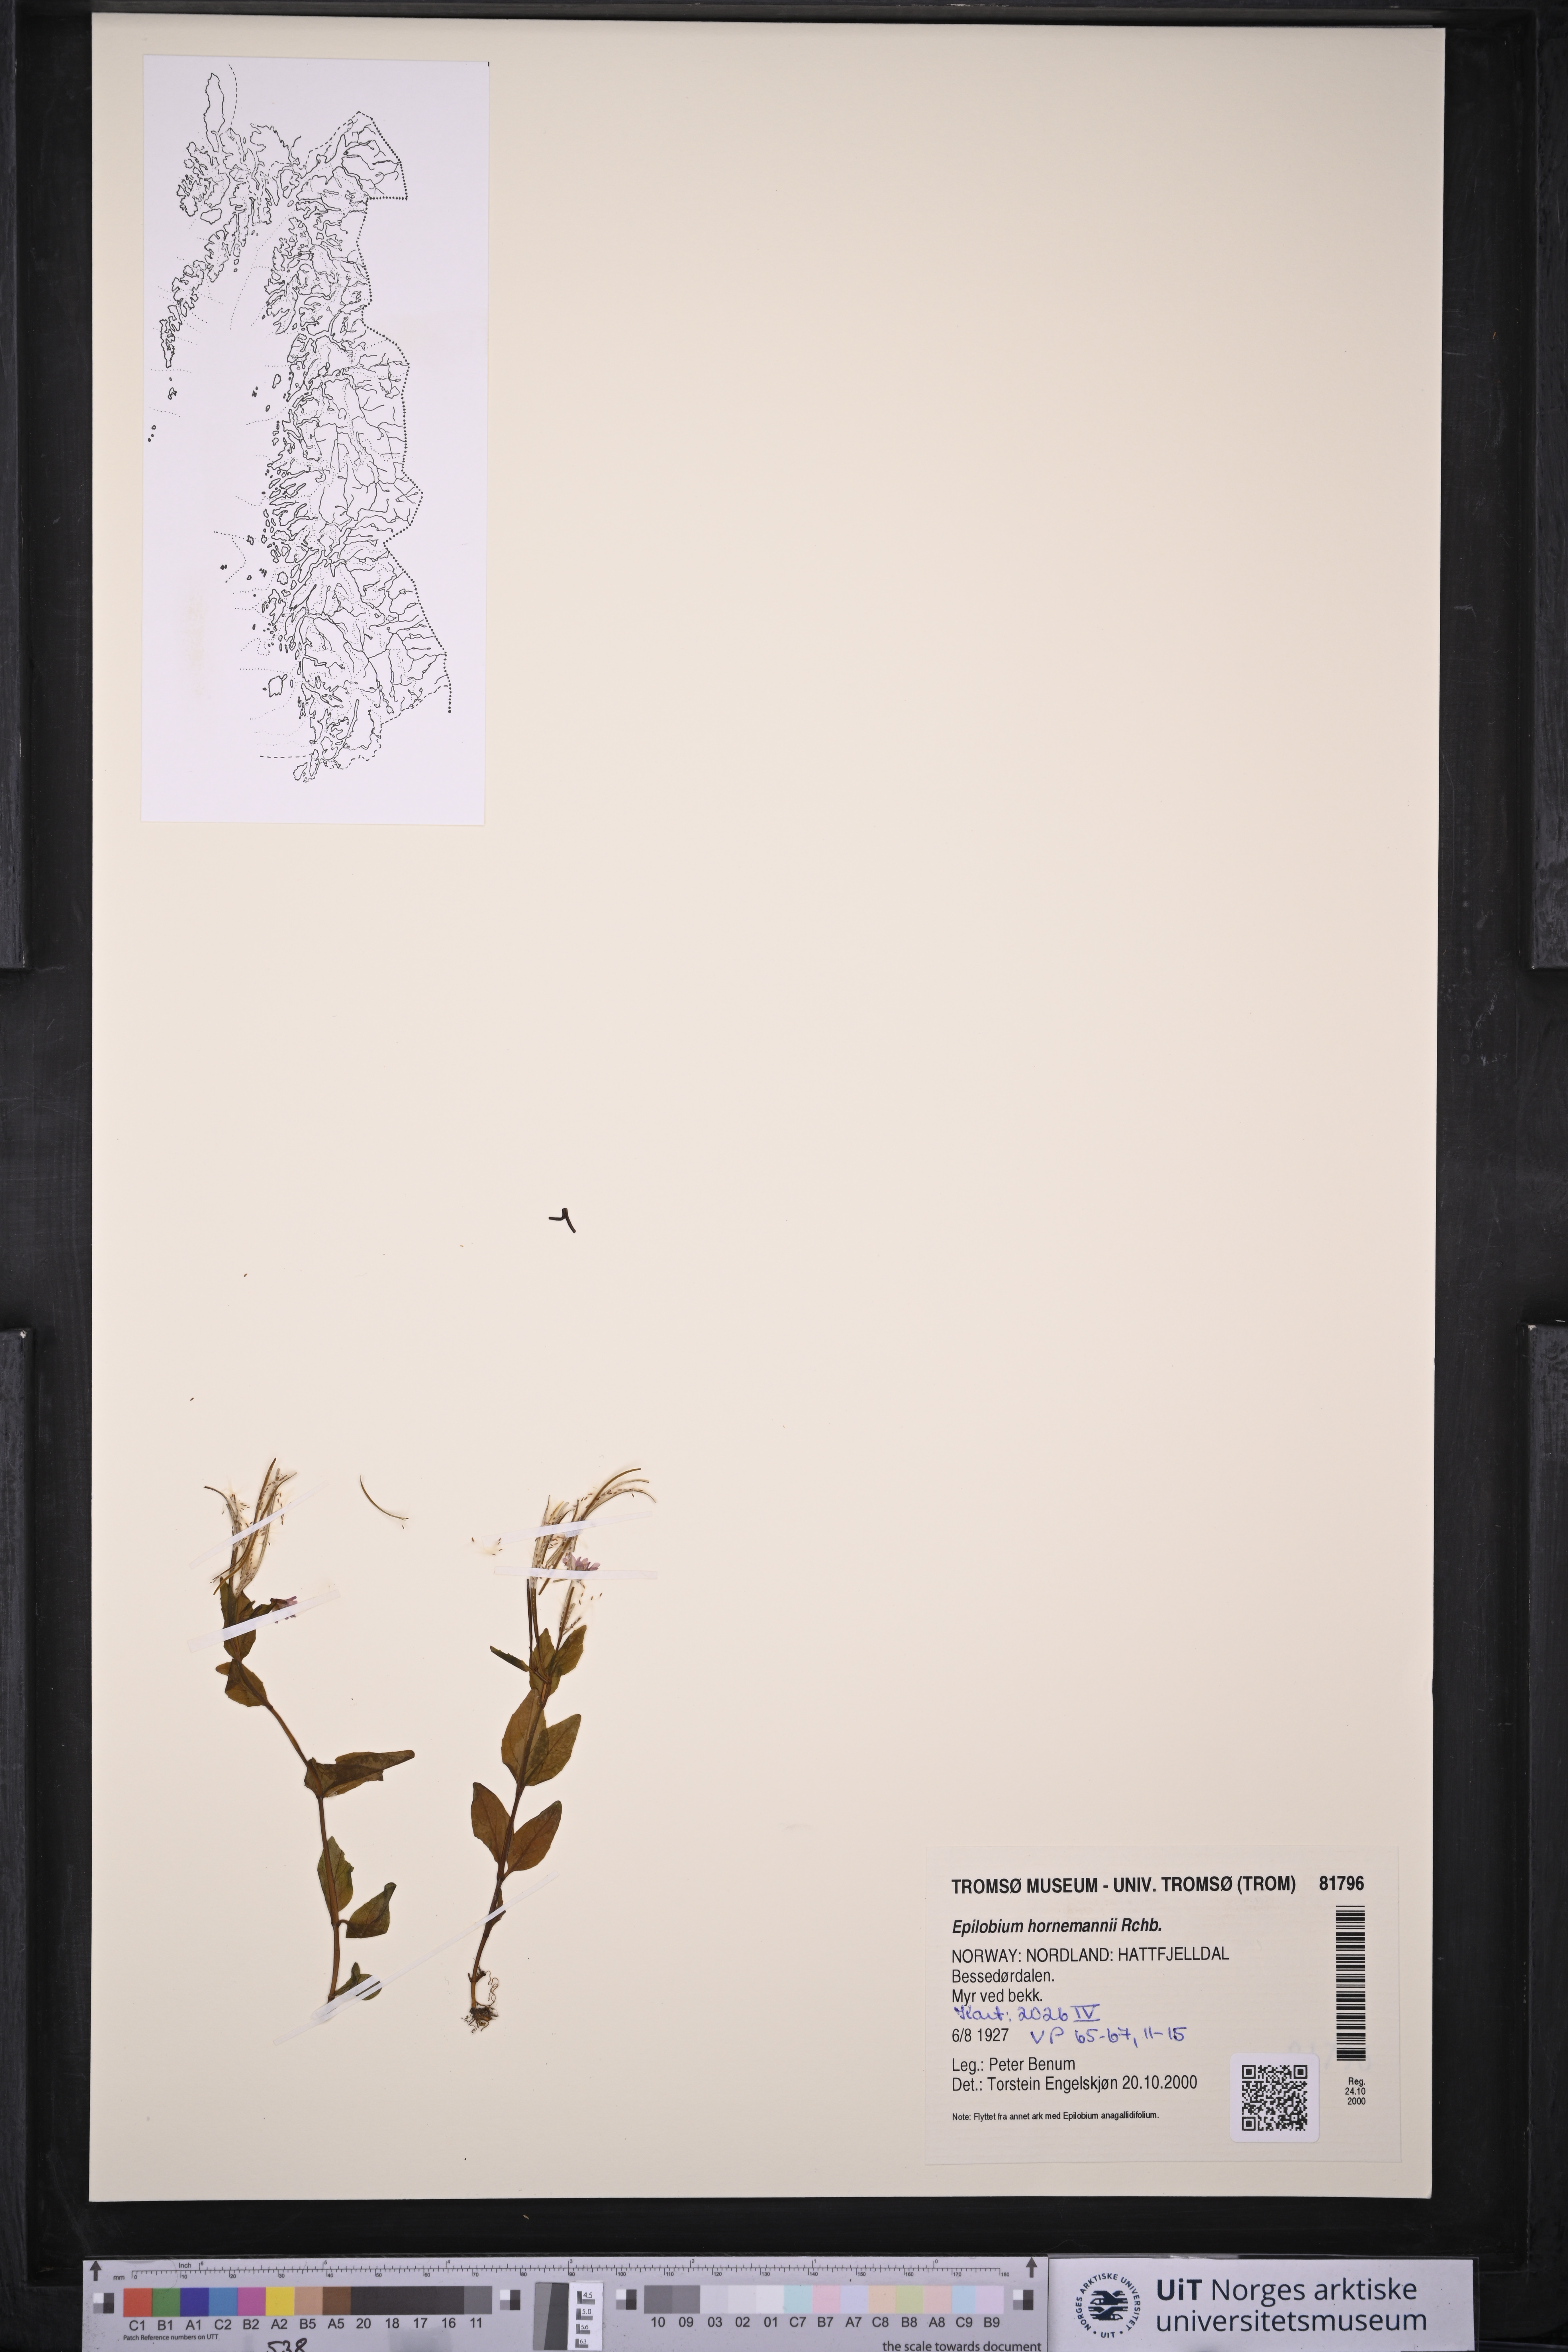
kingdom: Plantae
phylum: Tracheophyta
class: Magnoliopsida
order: Myrtales
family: Onagraceae
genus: Epilobium
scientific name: Epilobium hornemannii
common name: Hornemann's willowherb
